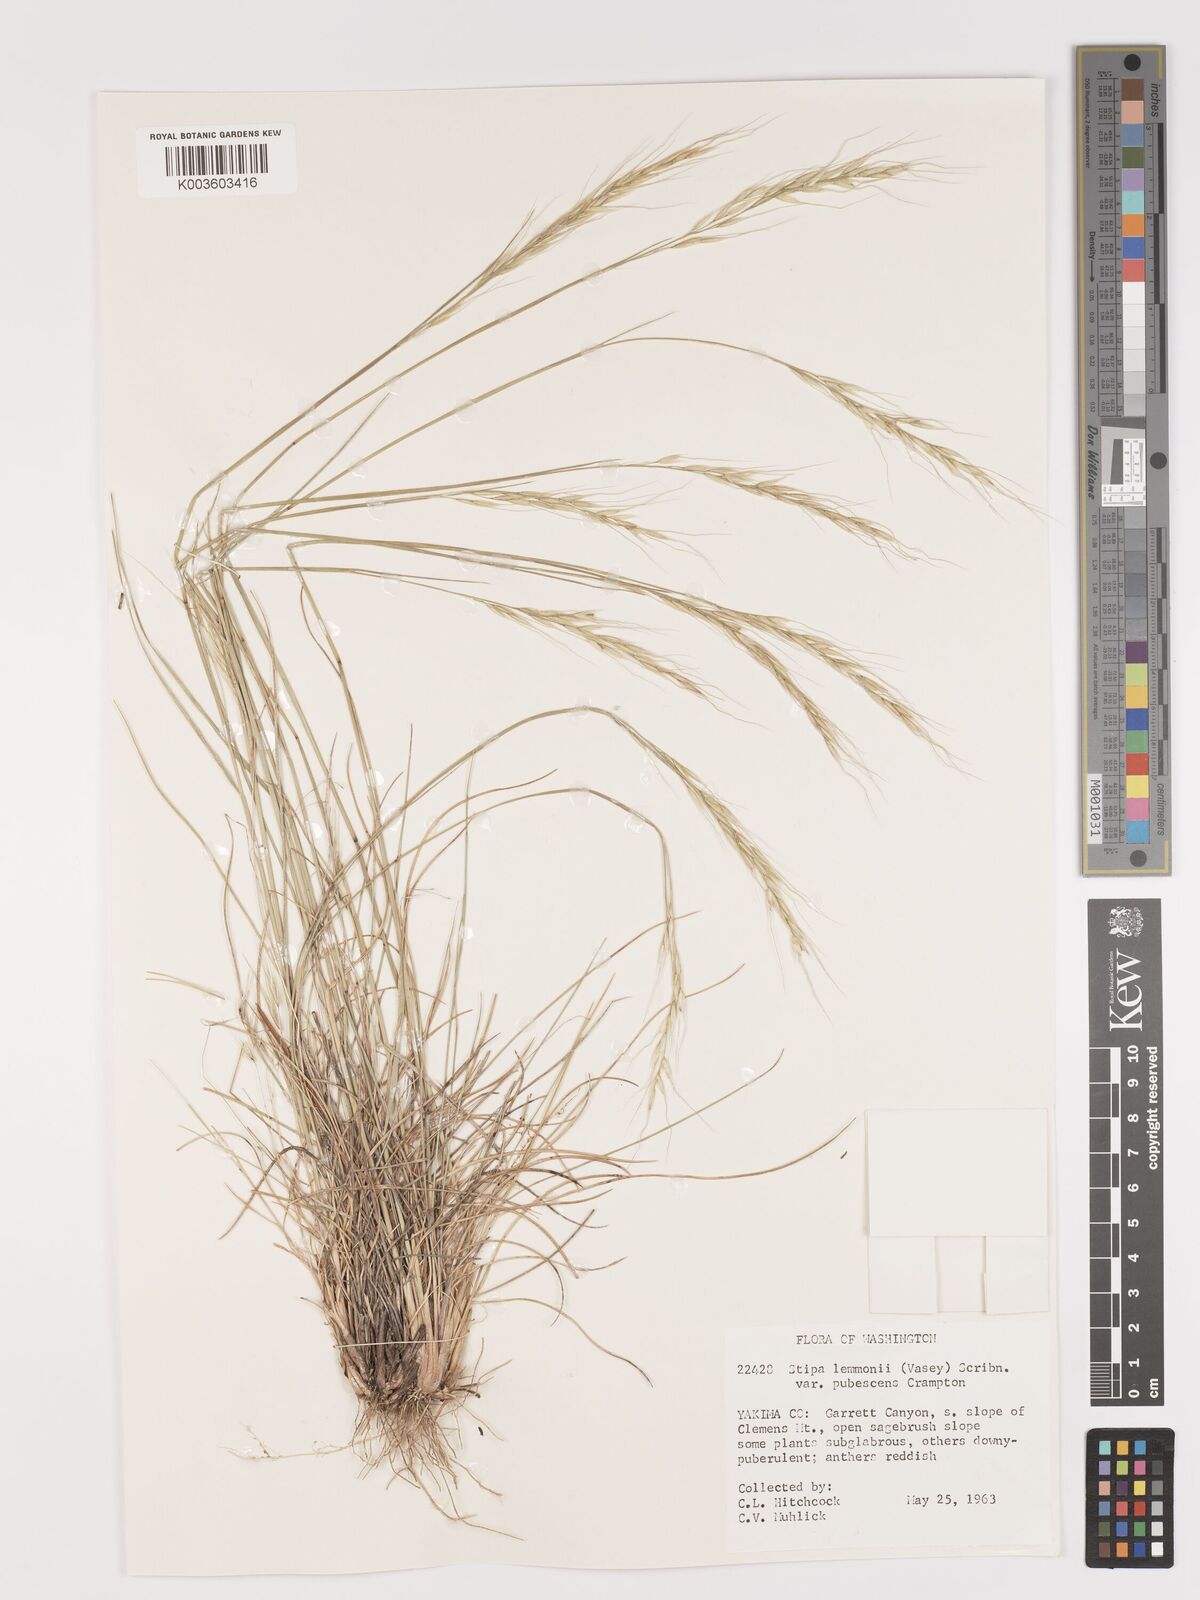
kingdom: Plantae
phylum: Tracheophyta
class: Liliopsida
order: Poales
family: Poaceae
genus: Eriocoma
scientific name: Eriocoma lemmonii
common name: Lemmon's needlegrass
